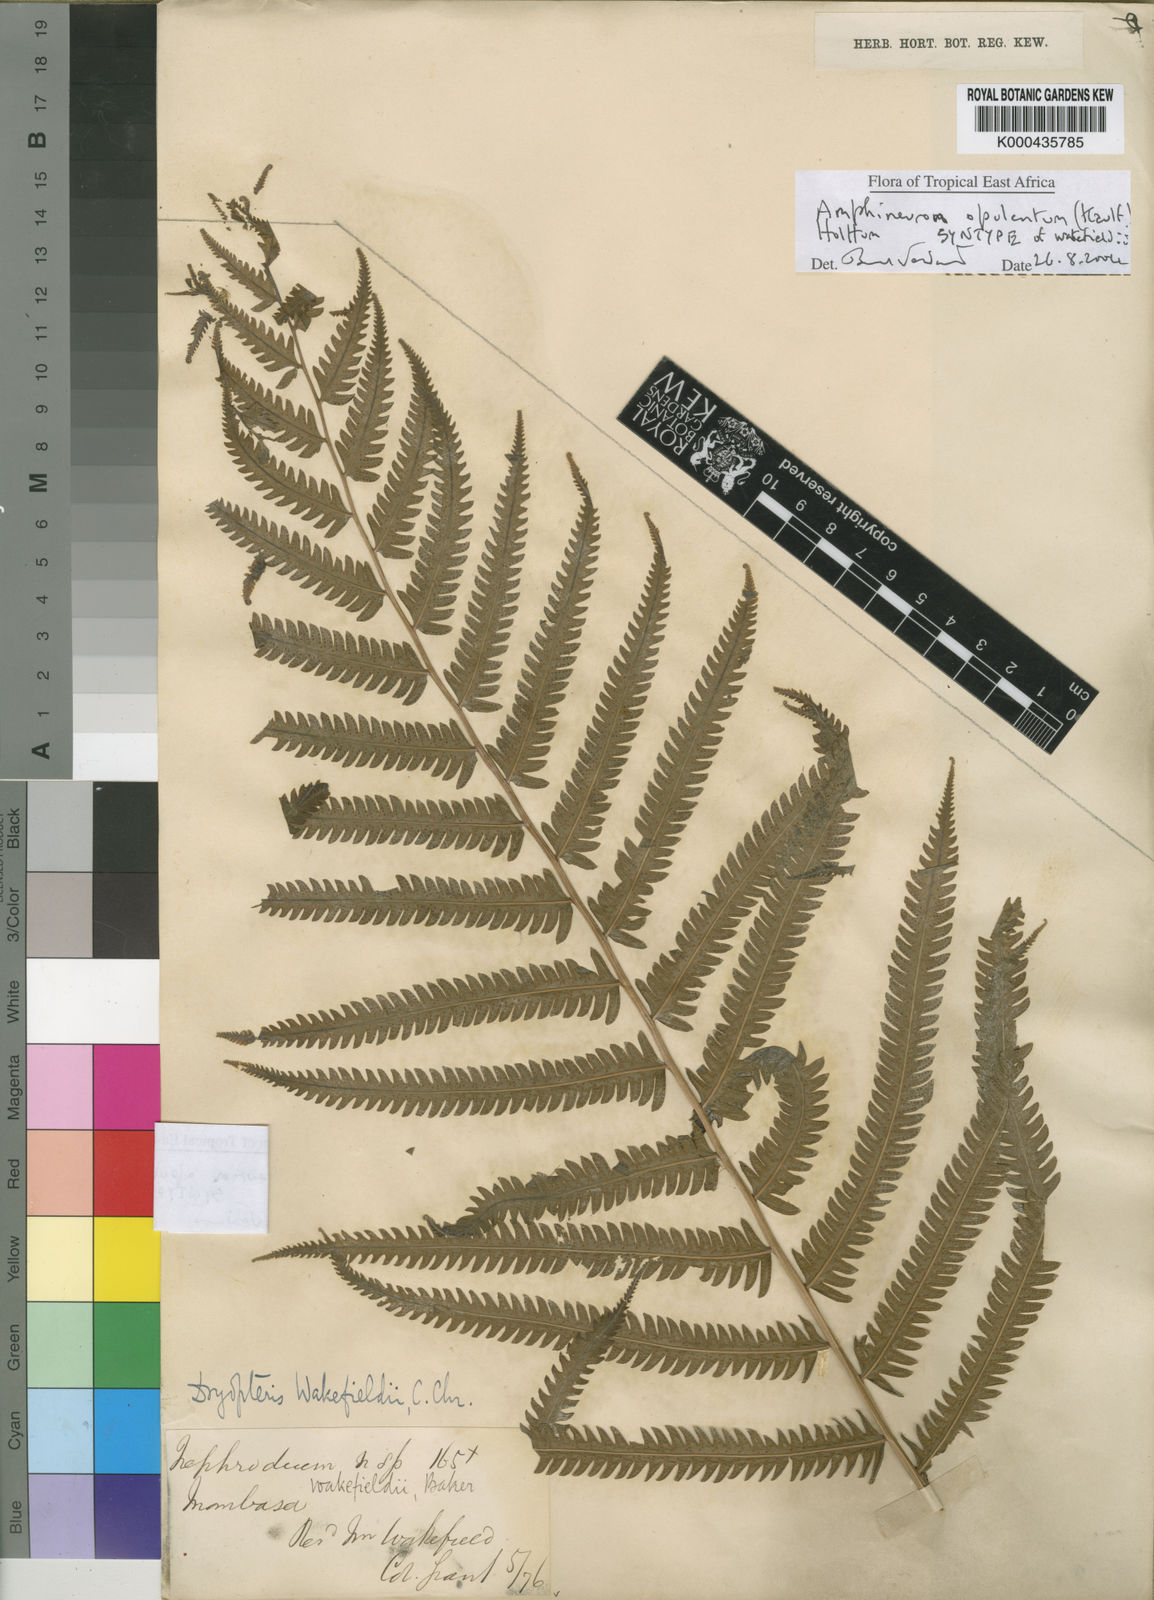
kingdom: Plantae
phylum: Tracheophyta
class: Polypodiopsida
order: Polypodiales
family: Thelypteridaceae
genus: Amblovenatum
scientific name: Amblovenatum opulentum
